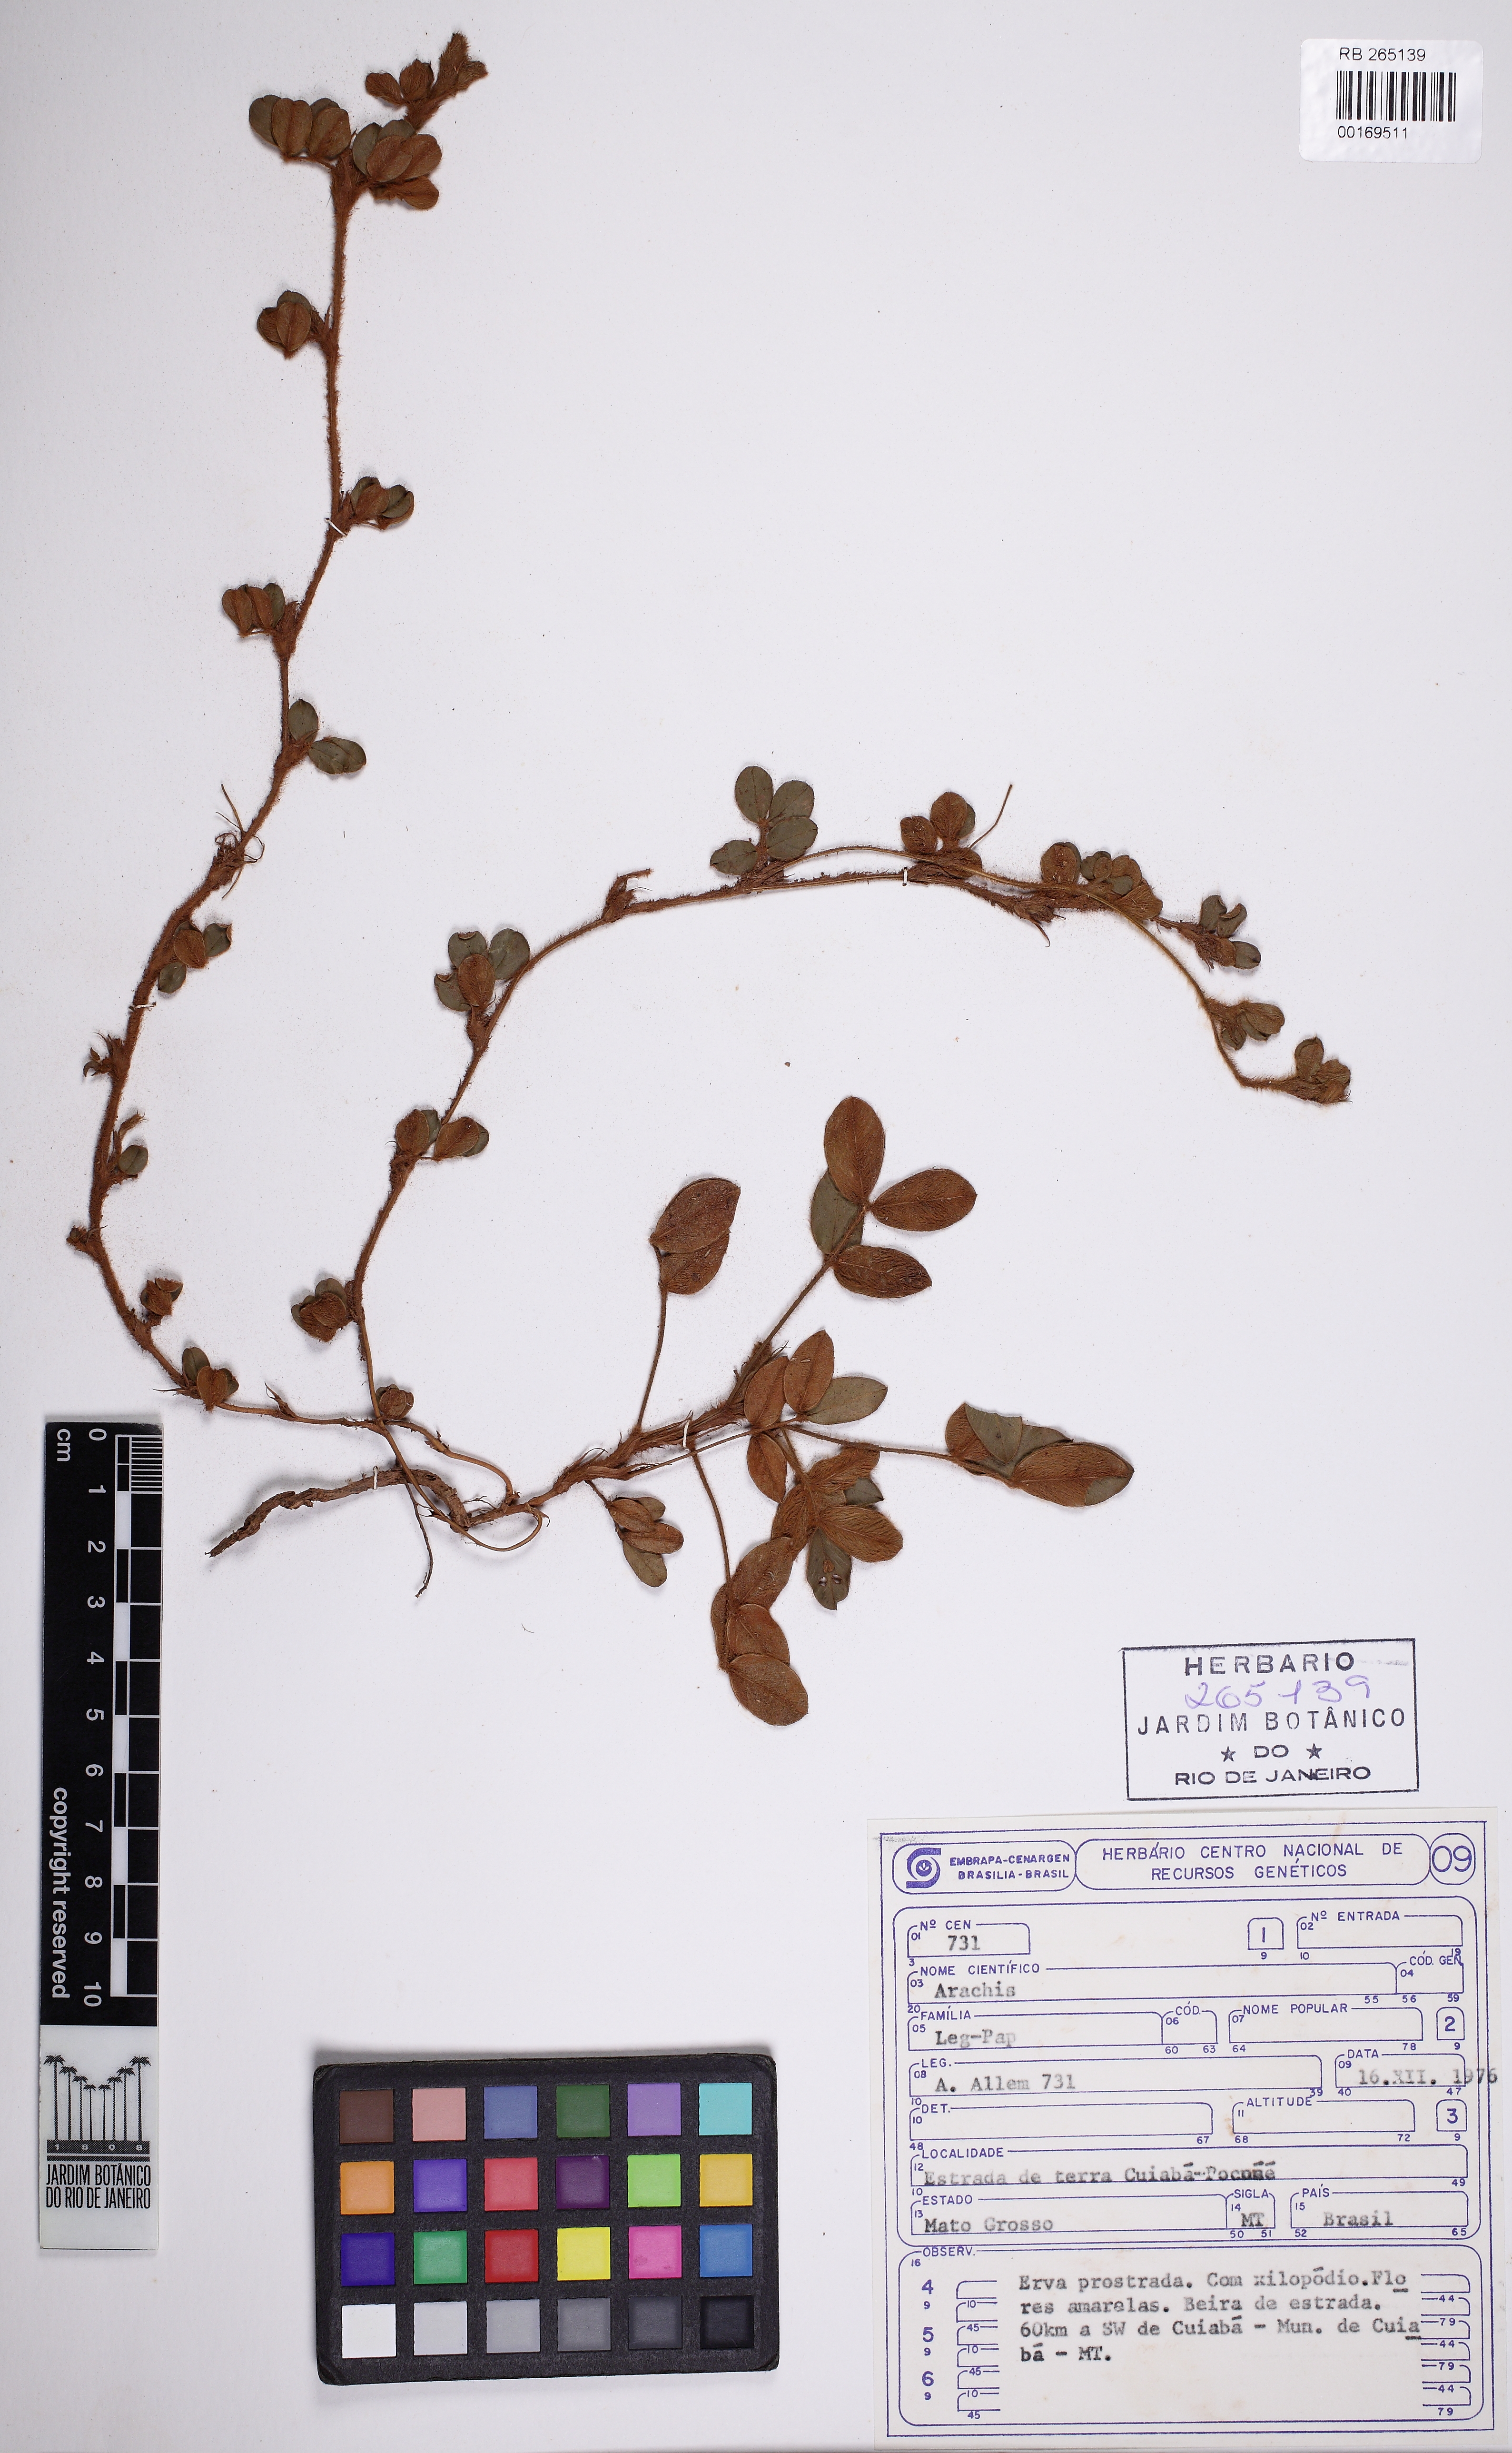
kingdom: Plantae
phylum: Tracheophyta
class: Magnoliopsida
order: Fabales
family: Fabaceae
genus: Arachis
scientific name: Arachis
